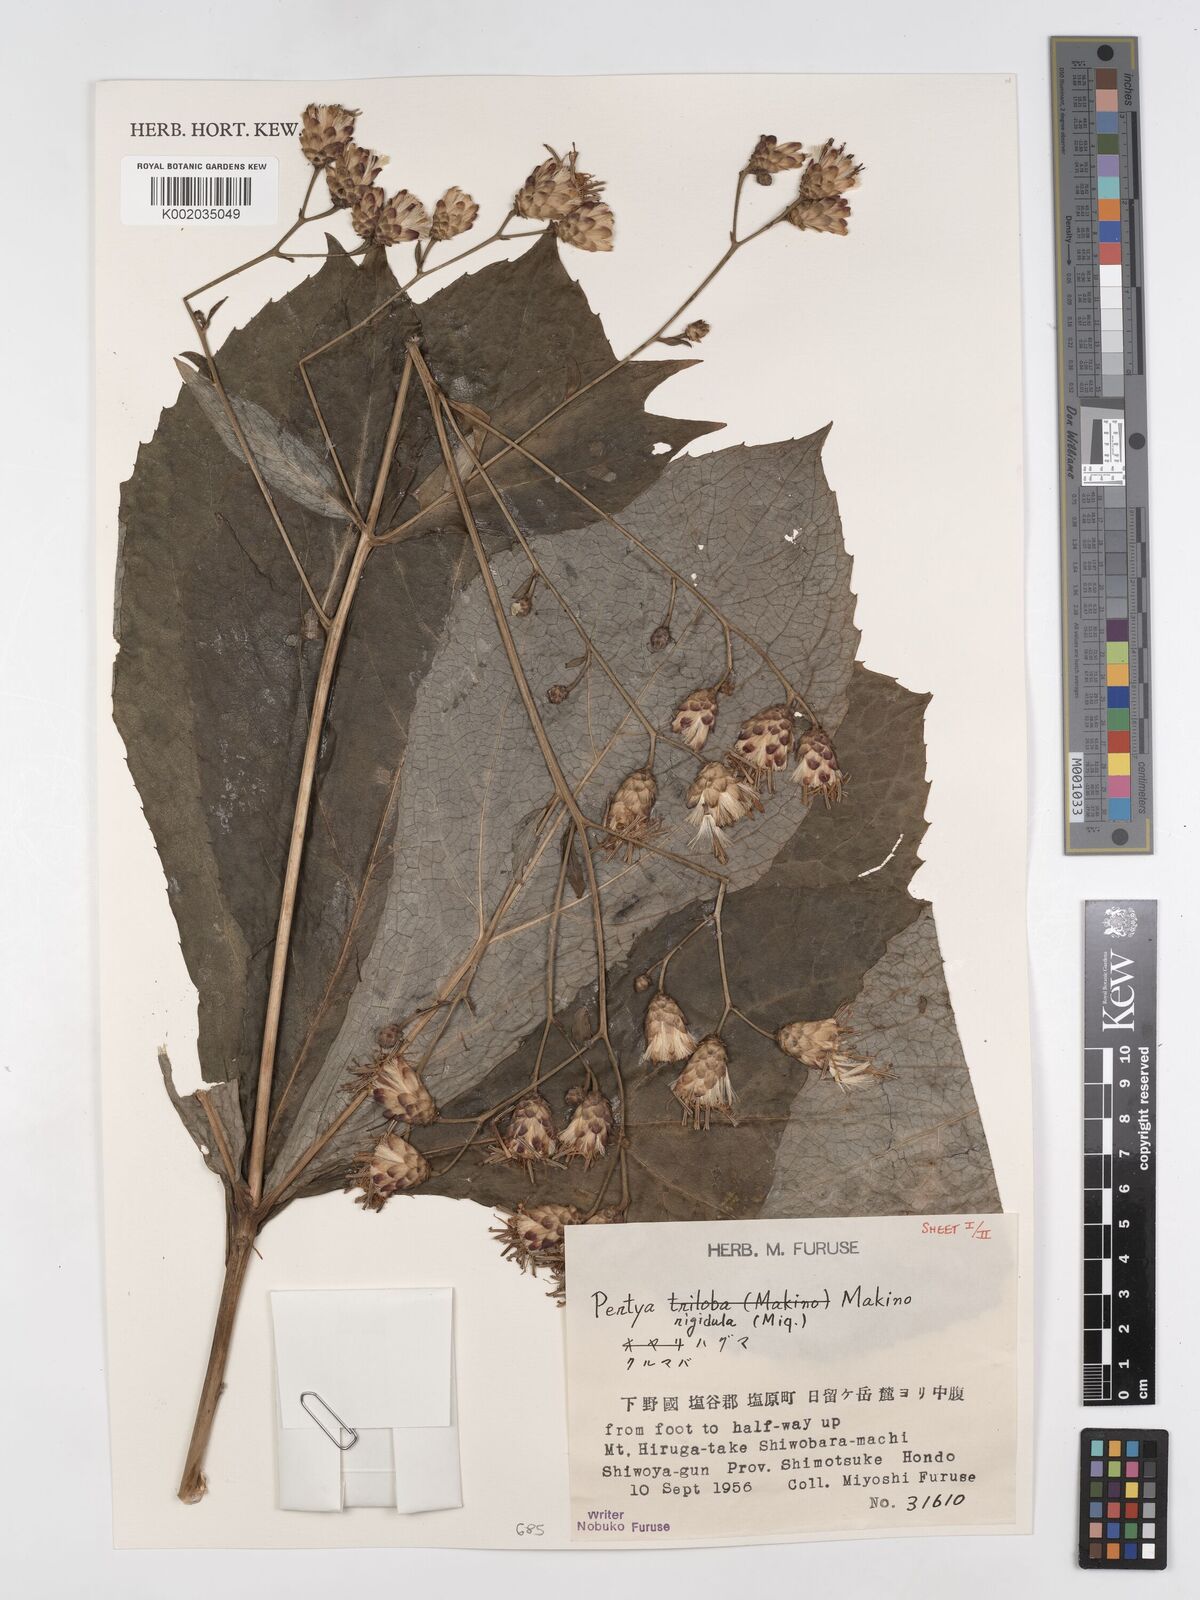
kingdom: Plantae
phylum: Tracheophyta
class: Magnoliopsida
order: Asterales
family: Asteraceae
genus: Pertya
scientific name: Pertya rigidula
